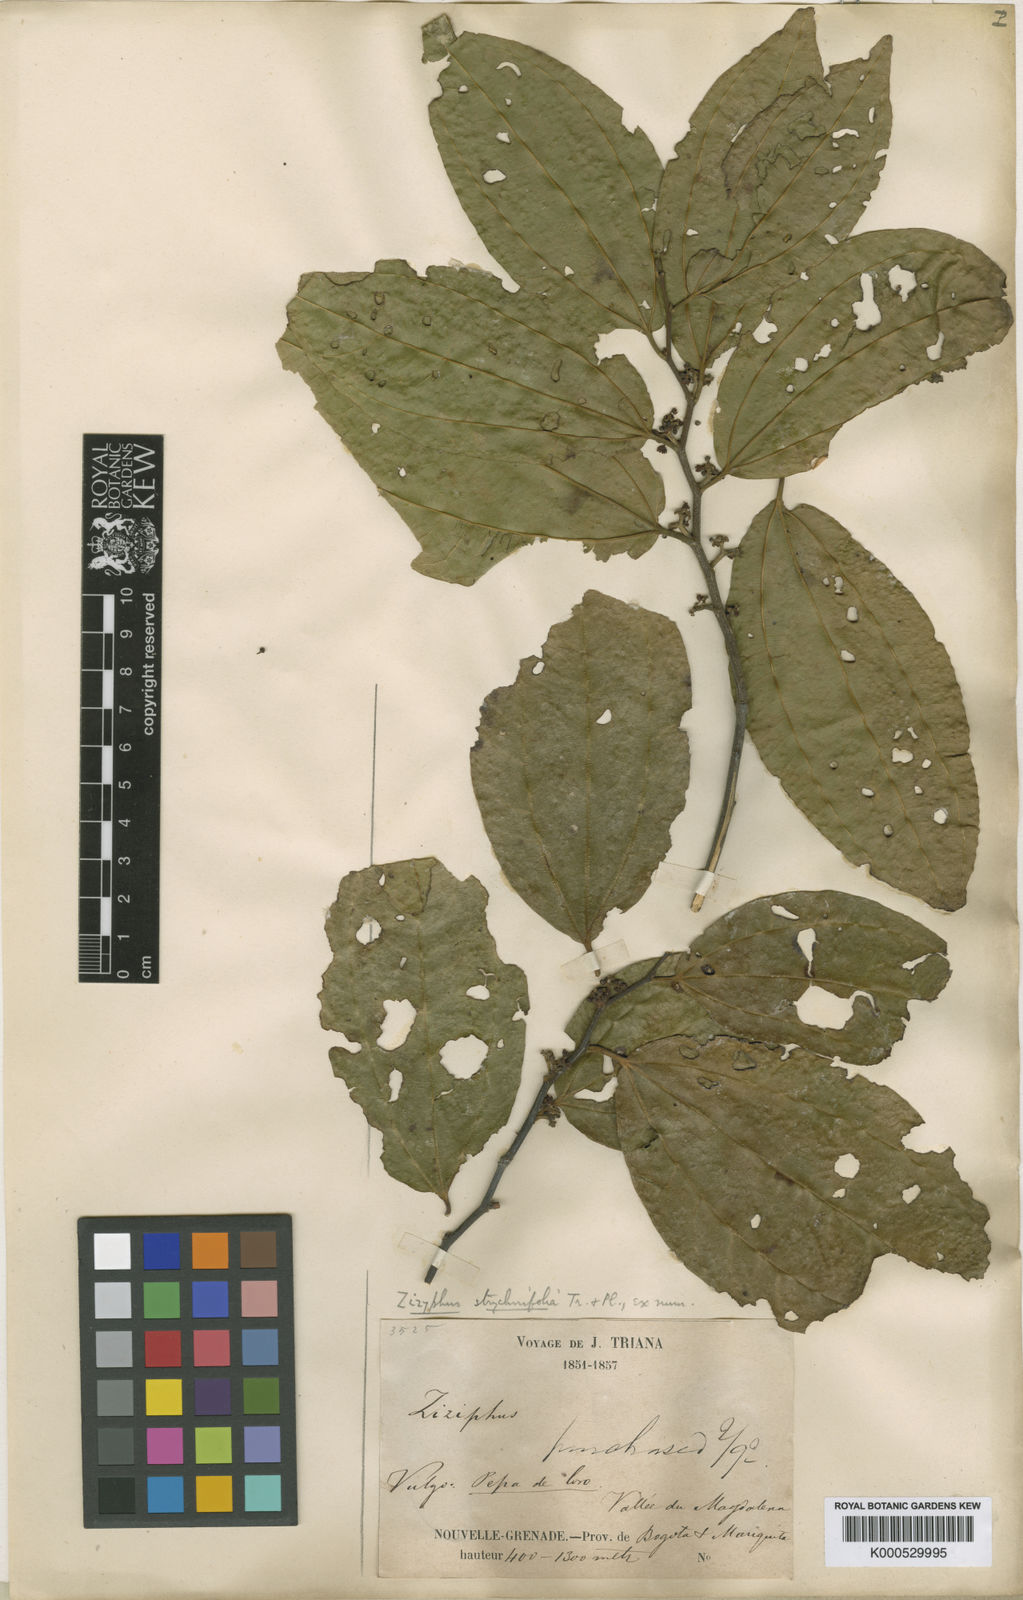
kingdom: Plantae
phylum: Tracheophyta
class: Magnoliopsida
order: Rosales
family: Rhamnaceae
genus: Sarcomphalus
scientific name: Sarcomphalus strychnifolius
